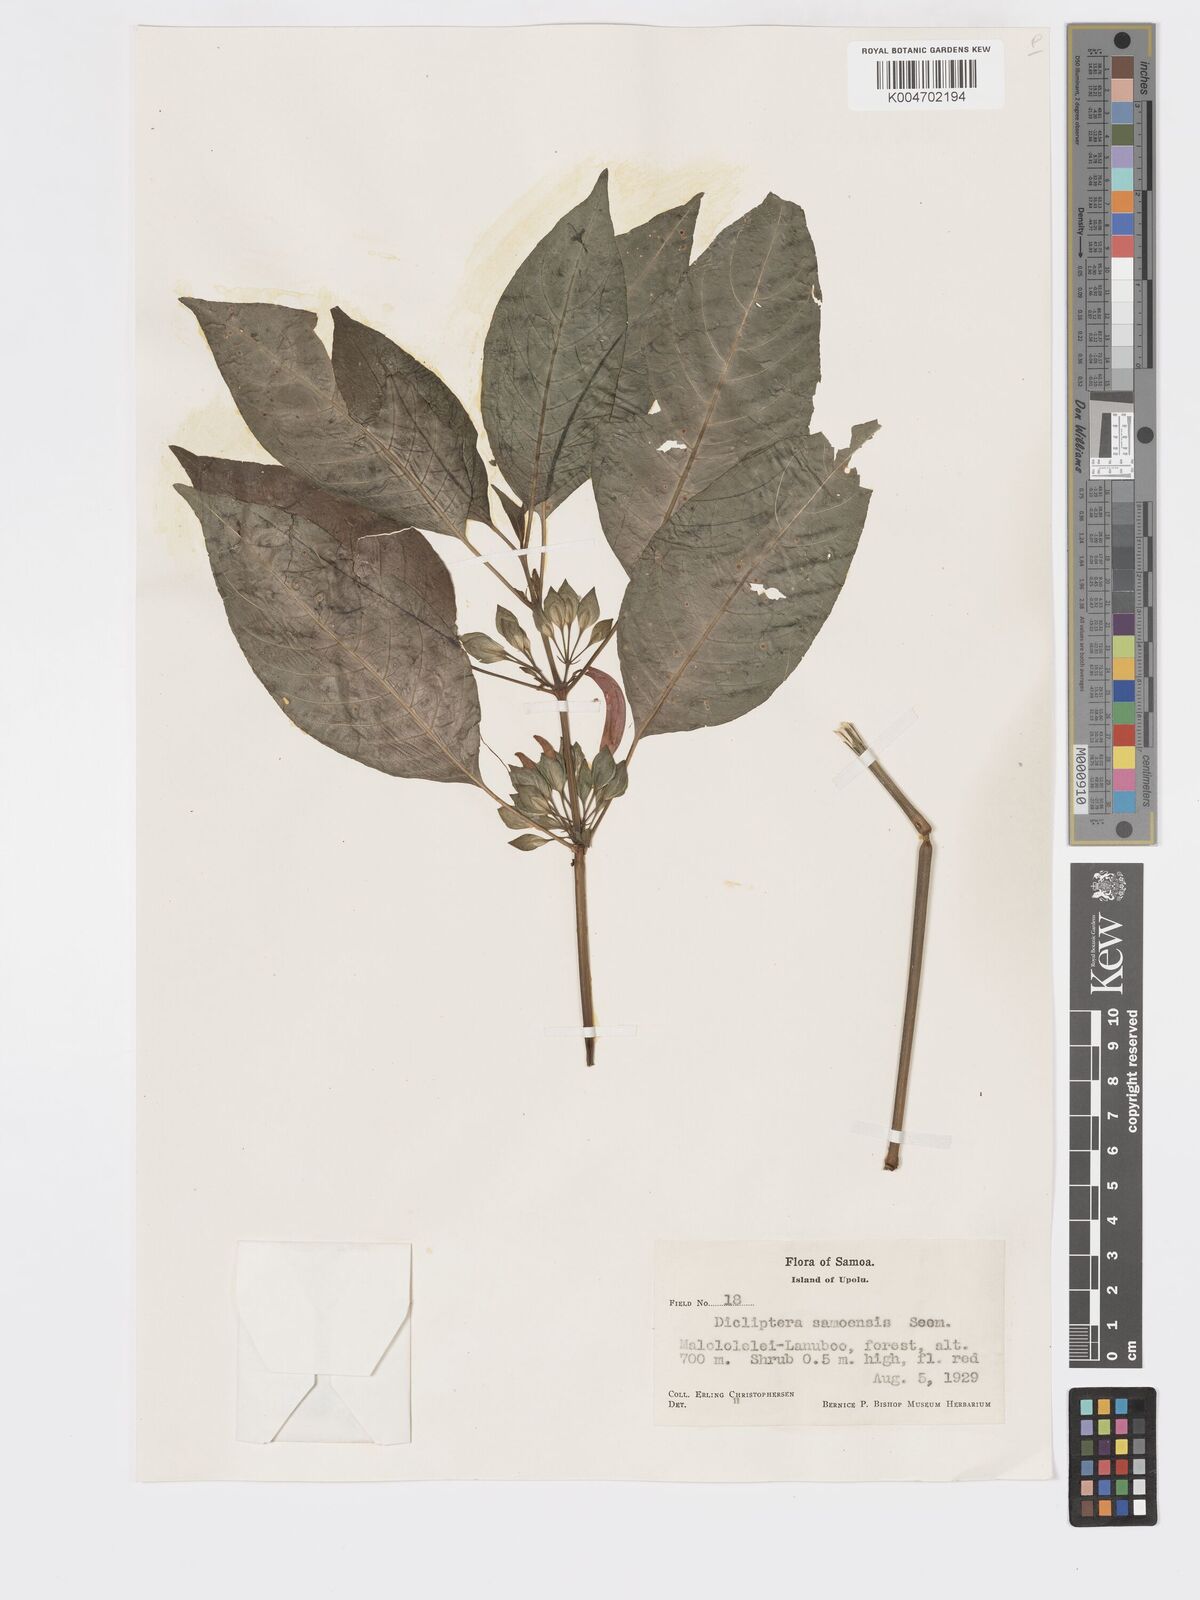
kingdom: Plantae
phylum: Tracheophyta
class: Magnoliopsida
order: Lamiales
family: Acanthaceae
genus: Dicliptera
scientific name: Dicliptera samoensis
